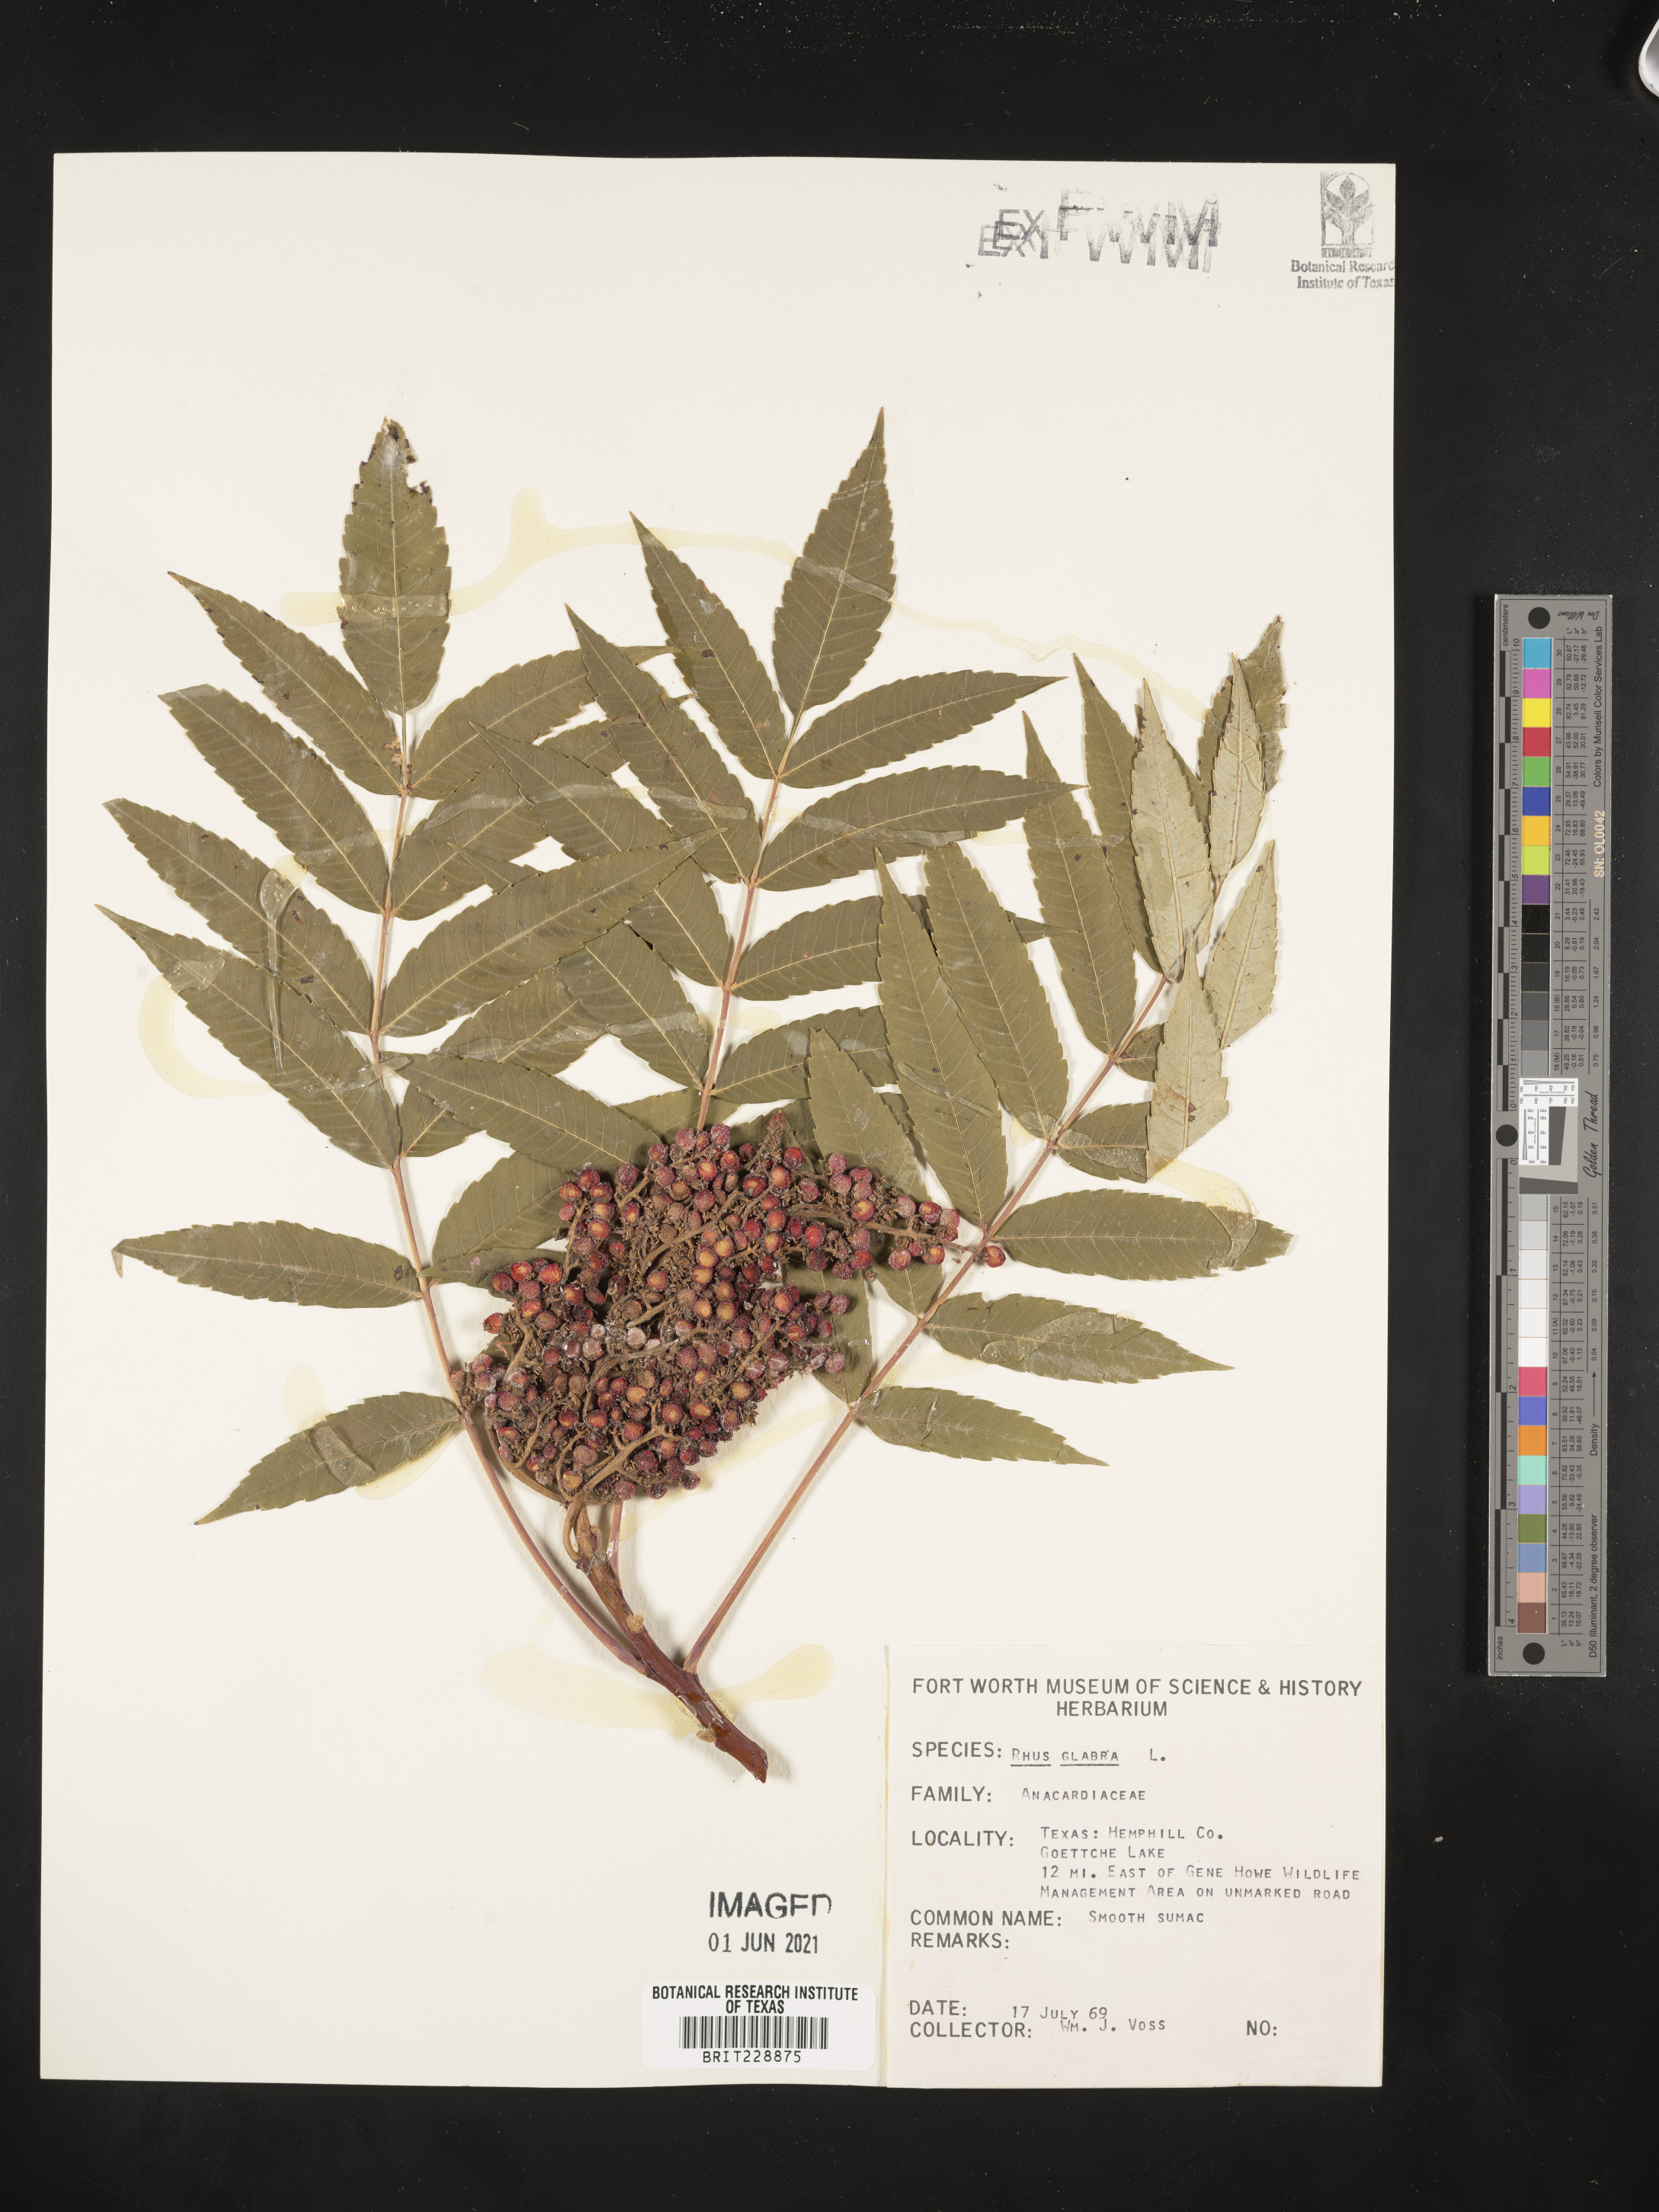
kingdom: Plantae
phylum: Tracheophyta
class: Magnoliopsida
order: Sapindales
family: Anacardiaceae
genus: Rhus
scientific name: Rhus glabra
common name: Scarlet sumac
